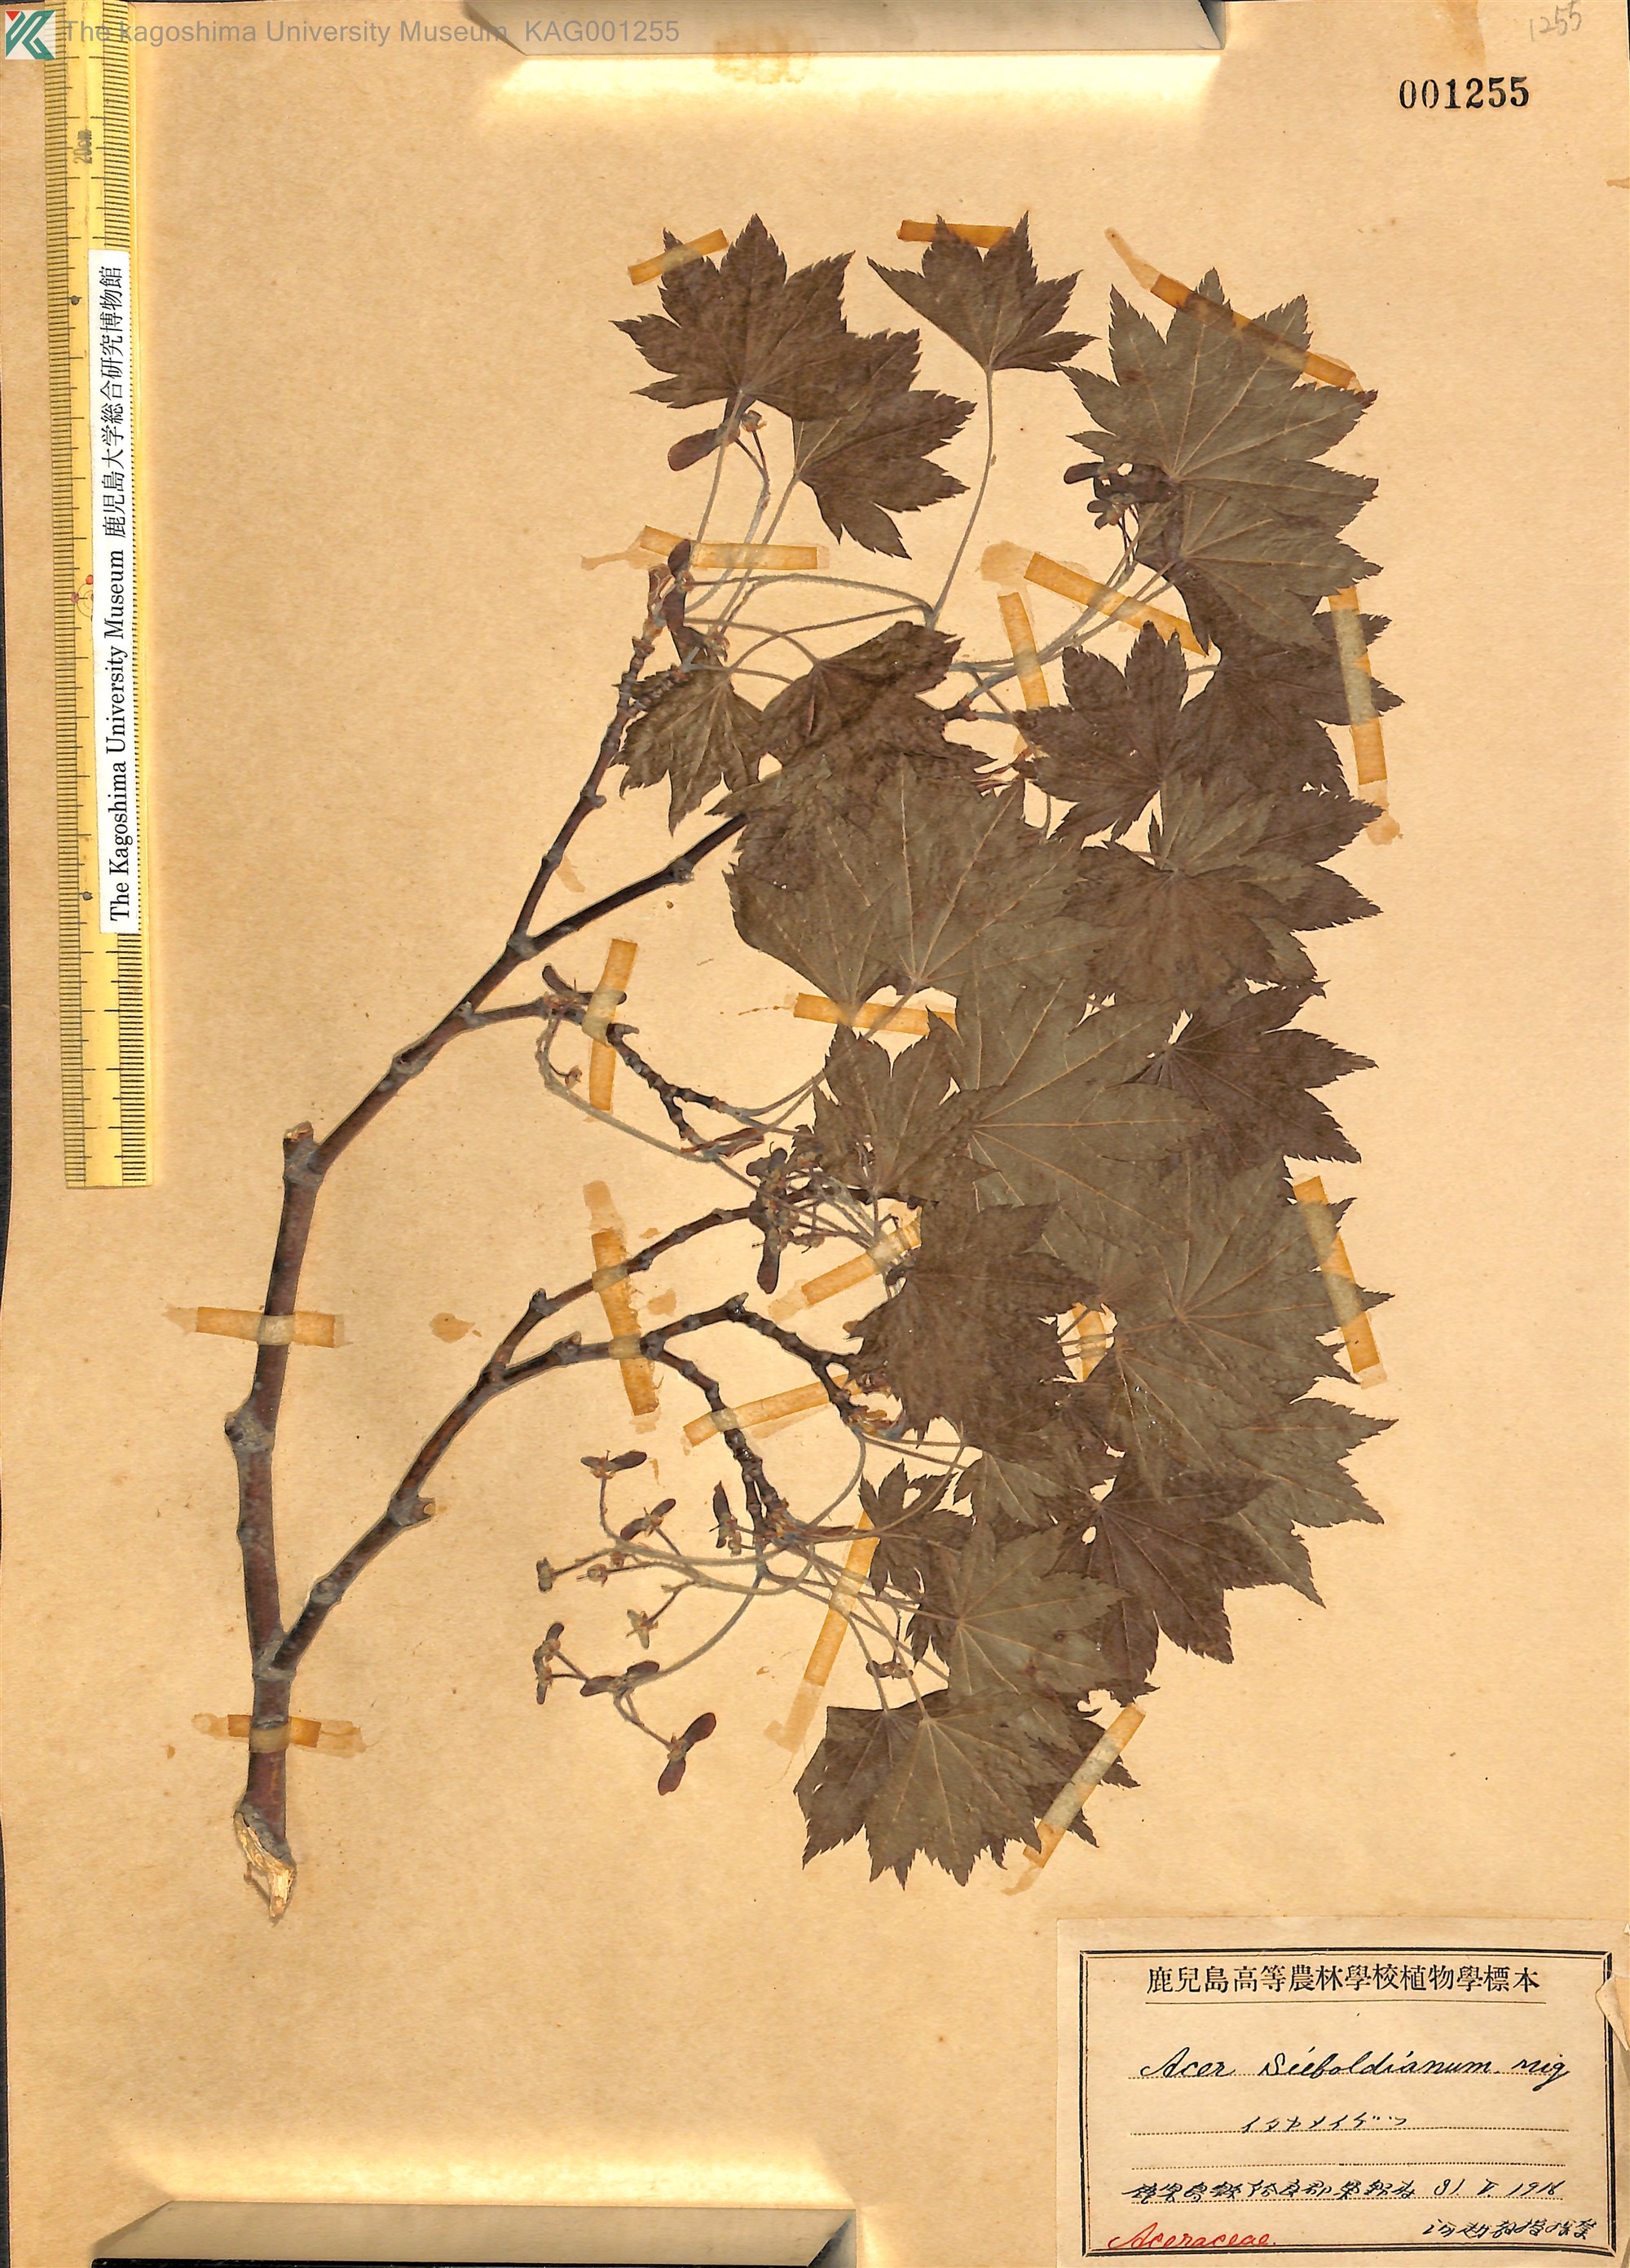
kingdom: Plantae
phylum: Tracheophyta
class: Magnoliopsida
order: Sapindales
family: Sapindaceae
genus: Acer
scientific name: Acer sieboldianum
